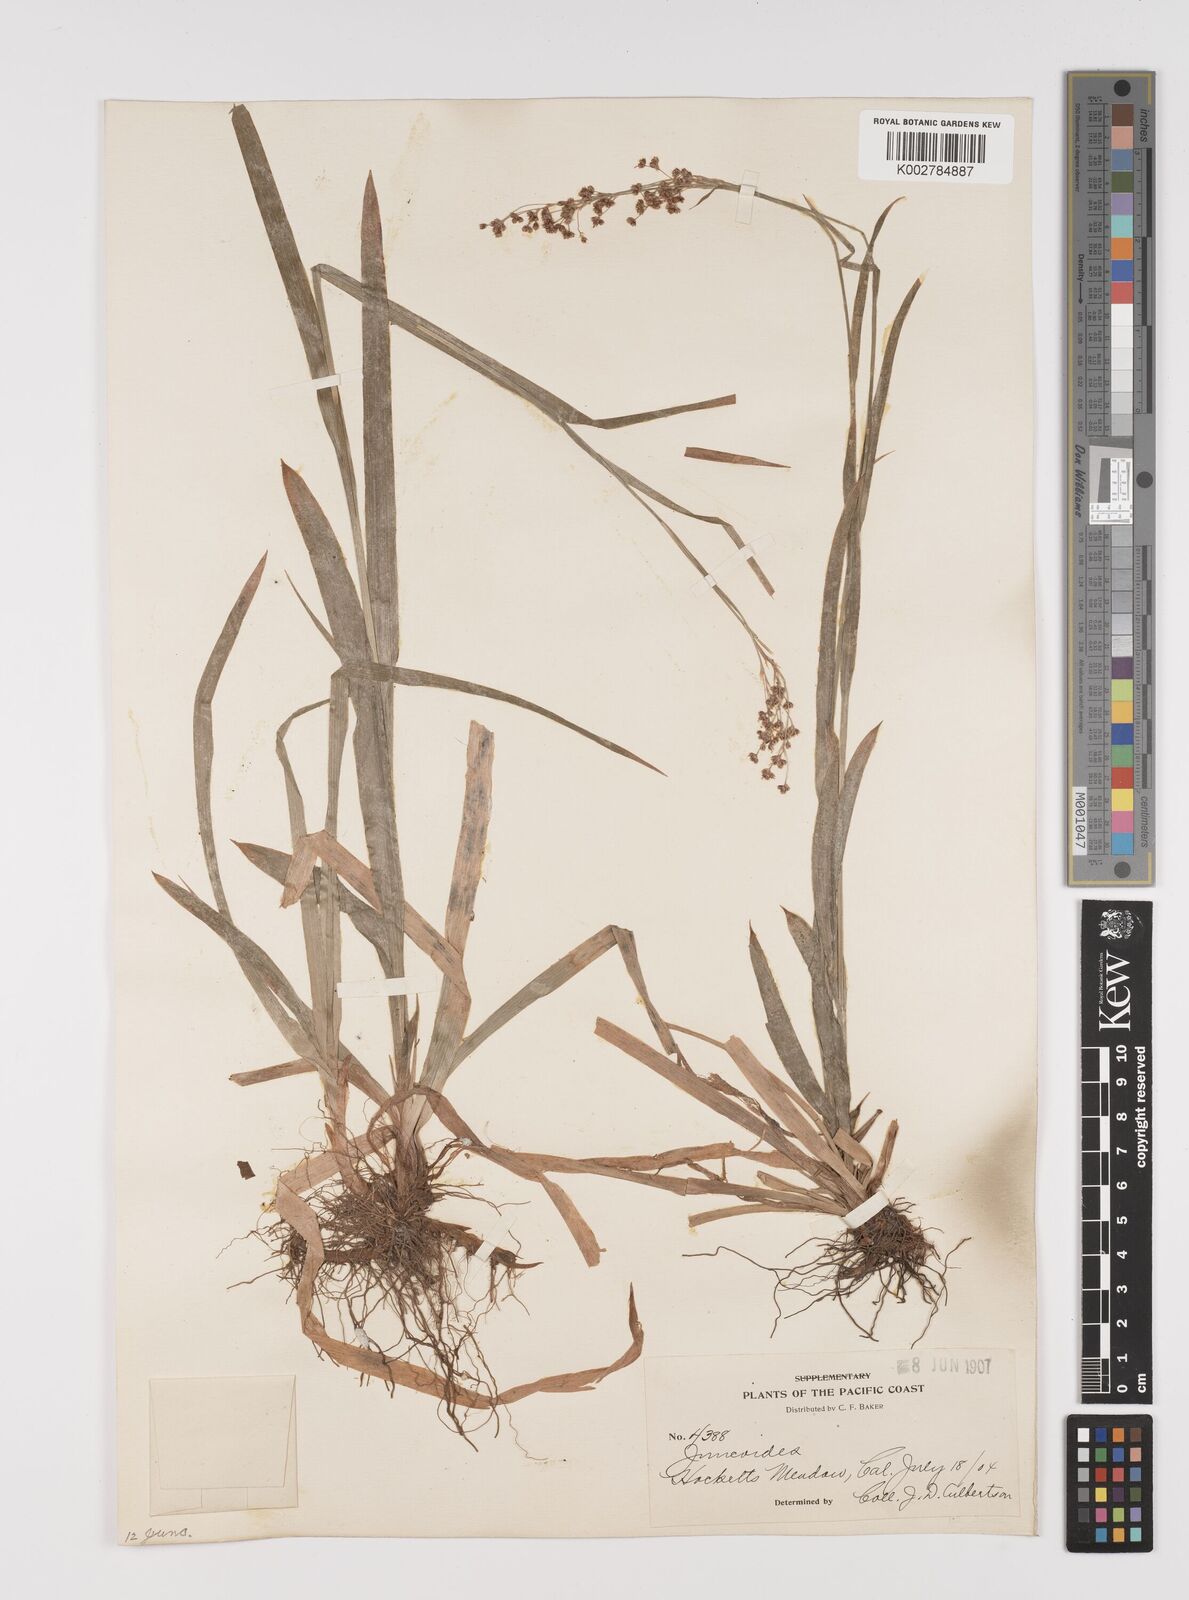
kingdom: Plantae
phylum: Tracheophyta
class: Liliopsida
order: Poales
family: Juncaceae
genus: Luzula
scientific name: Luzula glabrata
